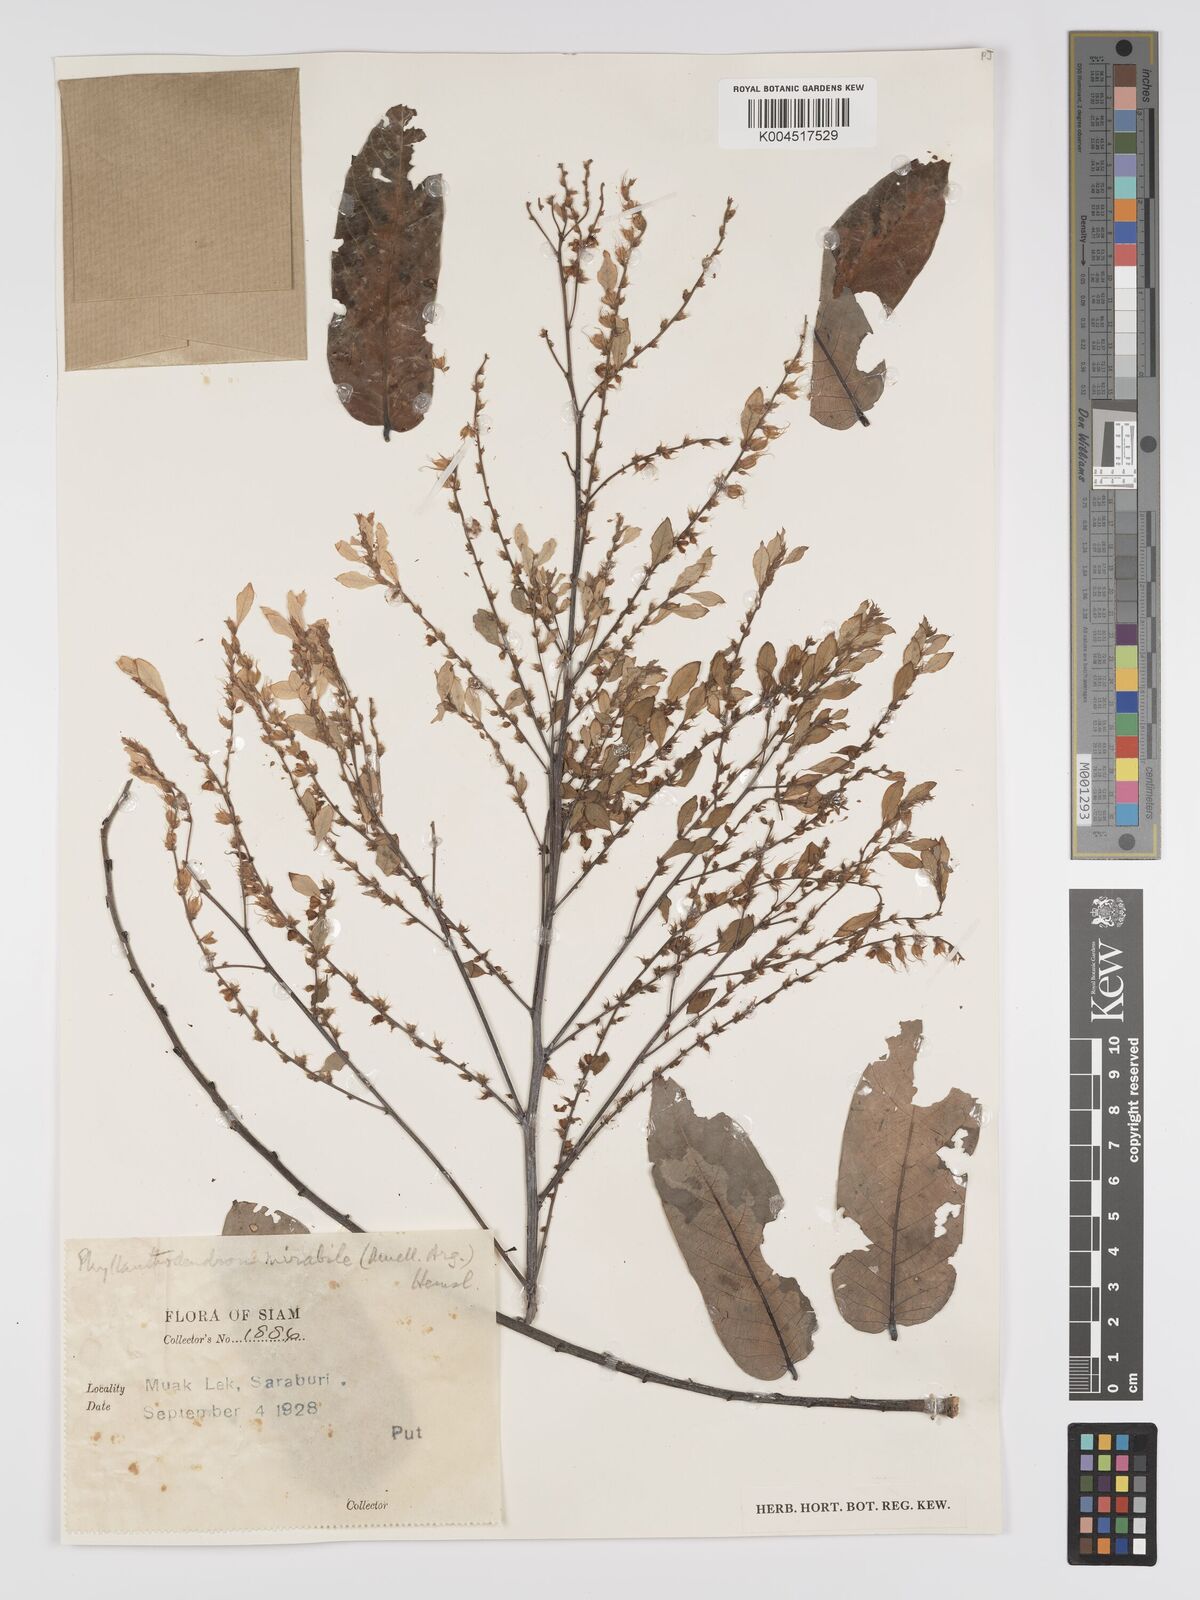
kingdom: Plantae
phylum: Tracheophyta
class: Magnoliopsida
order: Malpighiales
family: Phyllanthaceae
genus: Phyllanthus
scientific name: Phyllanthus mirabilis
